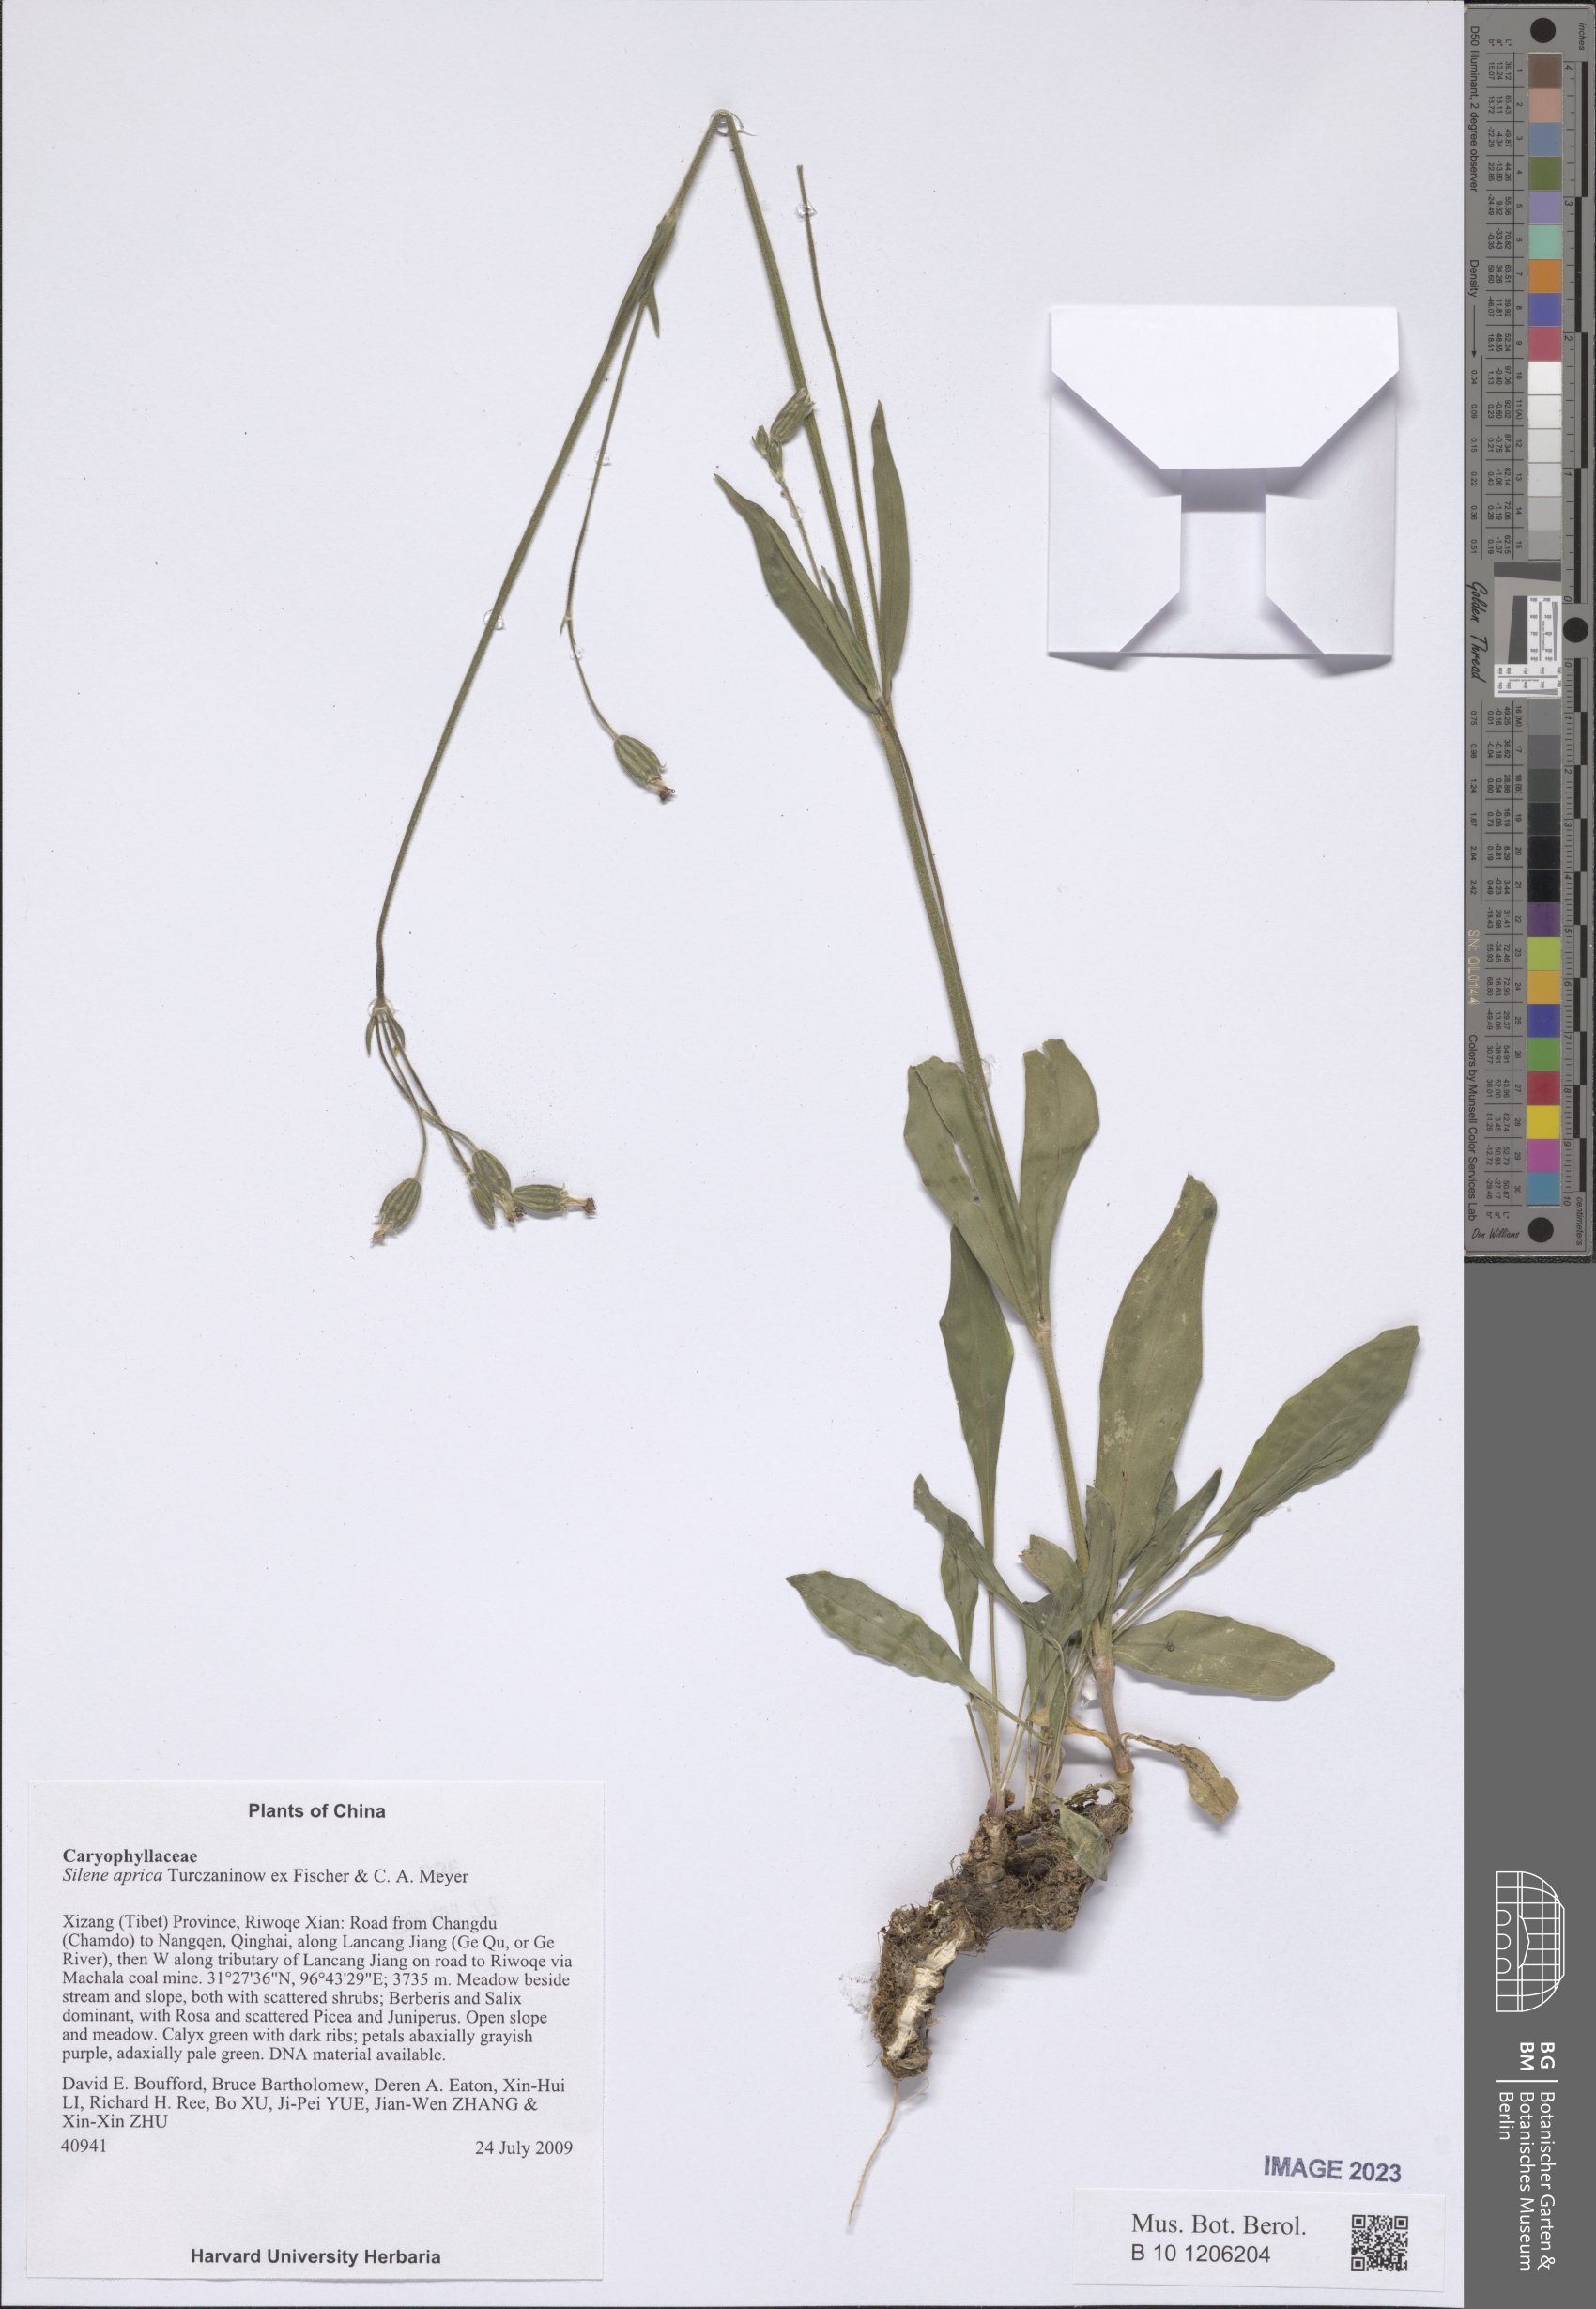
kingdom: Plantae
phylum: Tracheophyta
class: Magnoliopsida
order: Caryophyllales
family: Caryophyllaceae
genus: Silene
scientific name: Silene aprica
